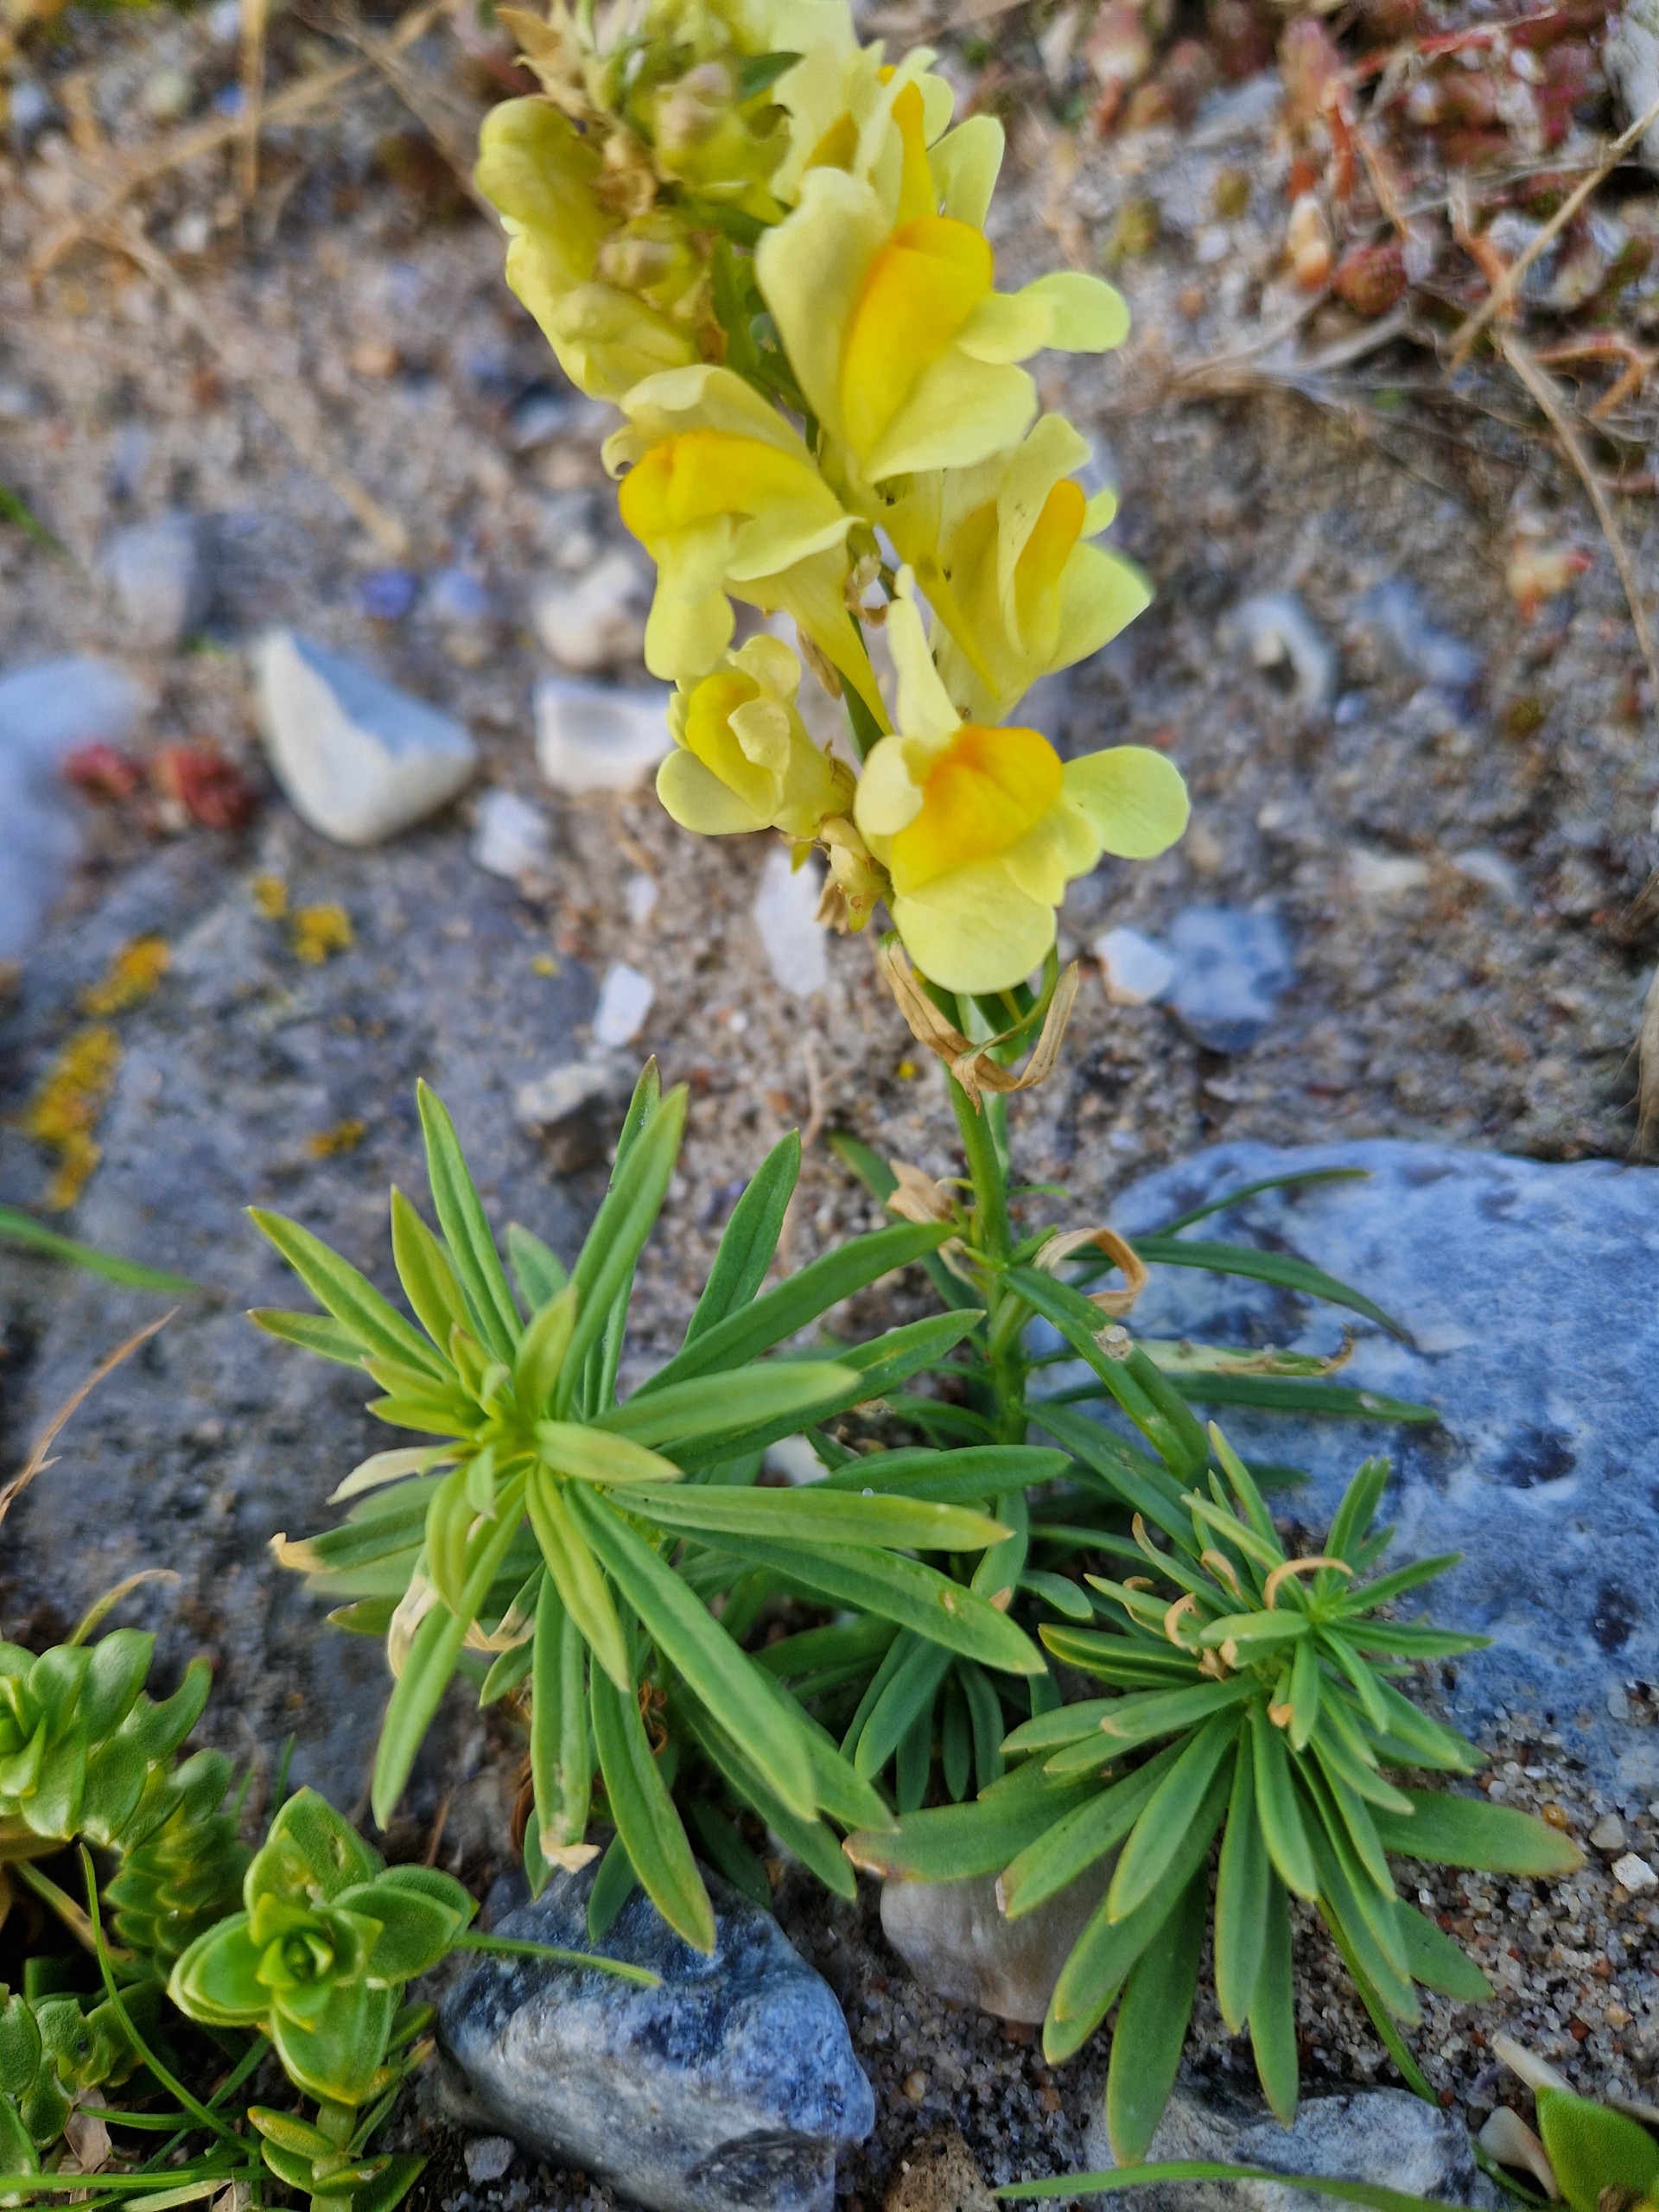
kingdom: Plantae
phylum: Tracheophyta
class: Magnoliopsida
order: Lamiales
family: Plantaginaceae
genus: Linaria
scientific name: Linaria vulgaris
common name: Almindelig torskemund
